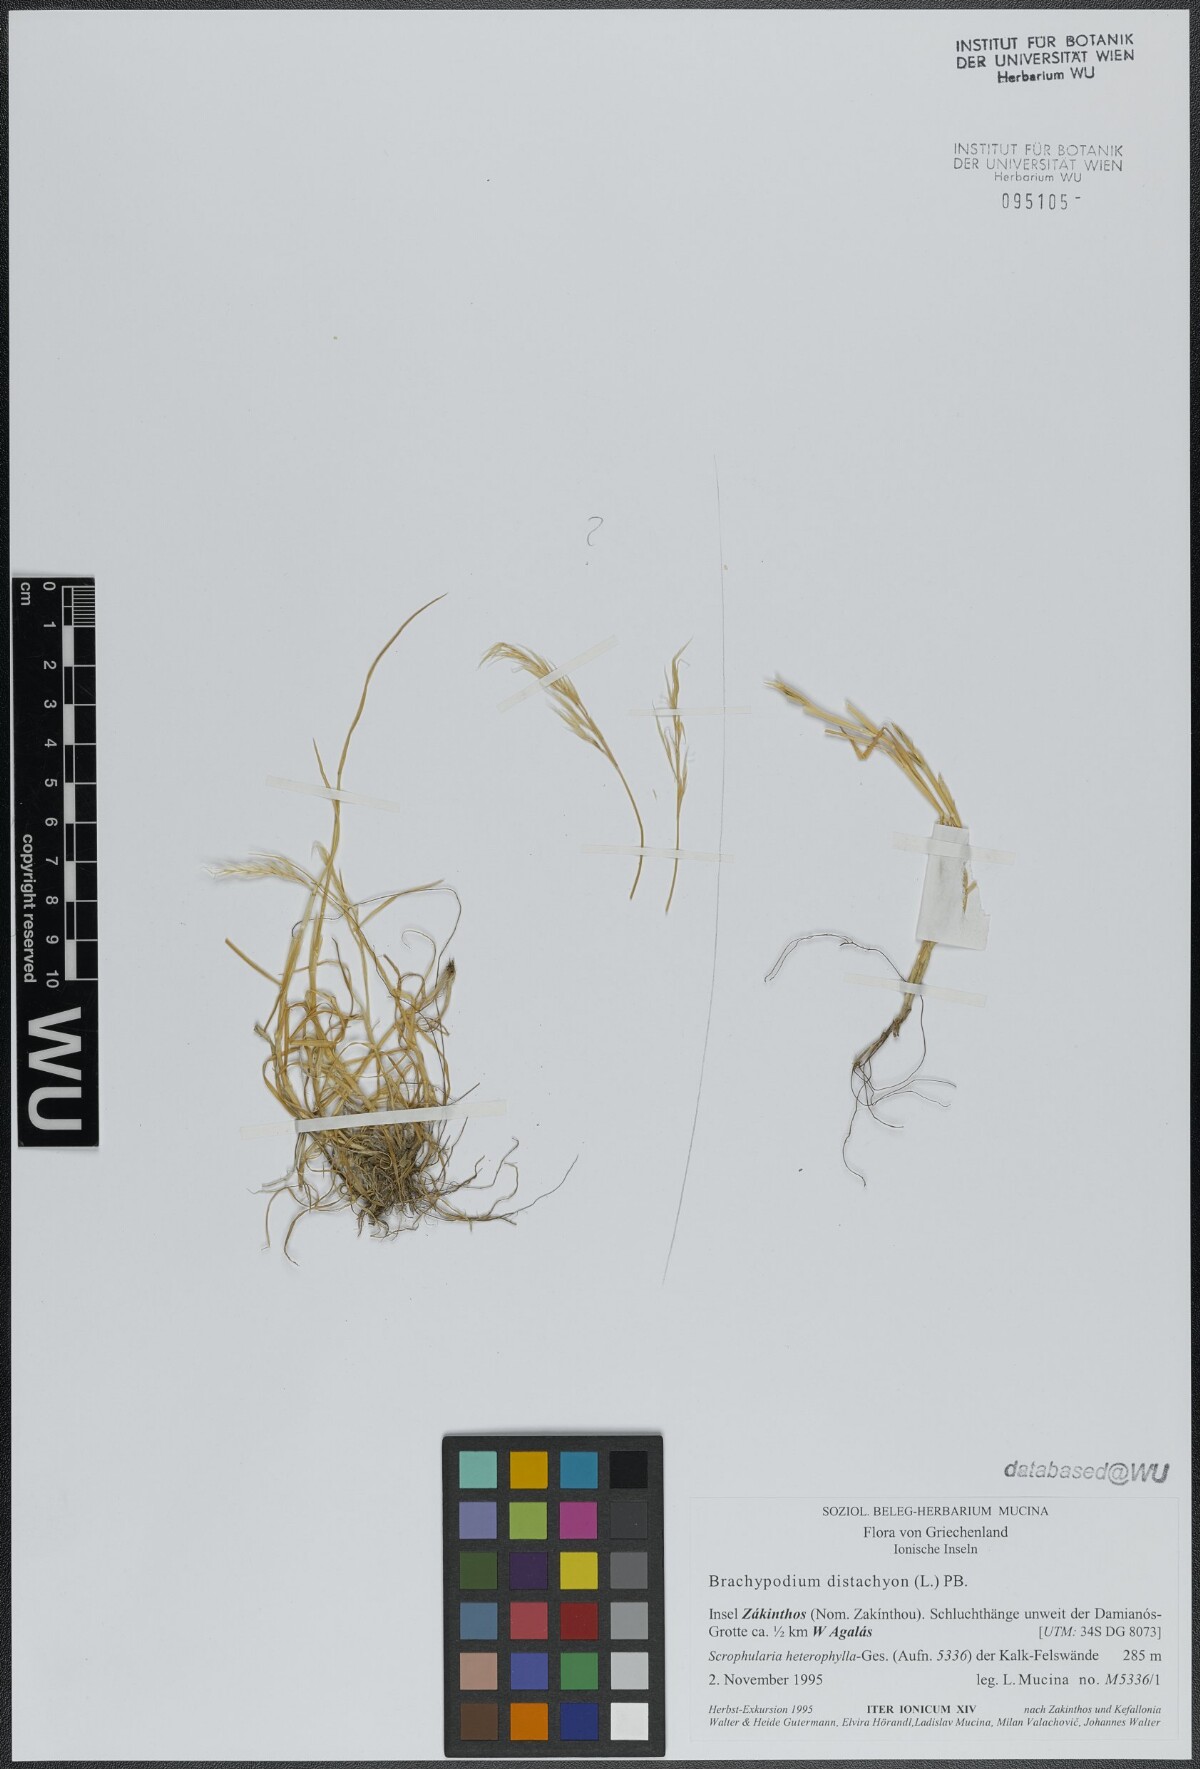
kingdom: Plantae
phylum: Tracheophyta
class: Liliopsida
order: Poales
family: Poaceae
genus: Brachypodium
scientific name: Brachypodium distachyon
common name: Stiff brome
